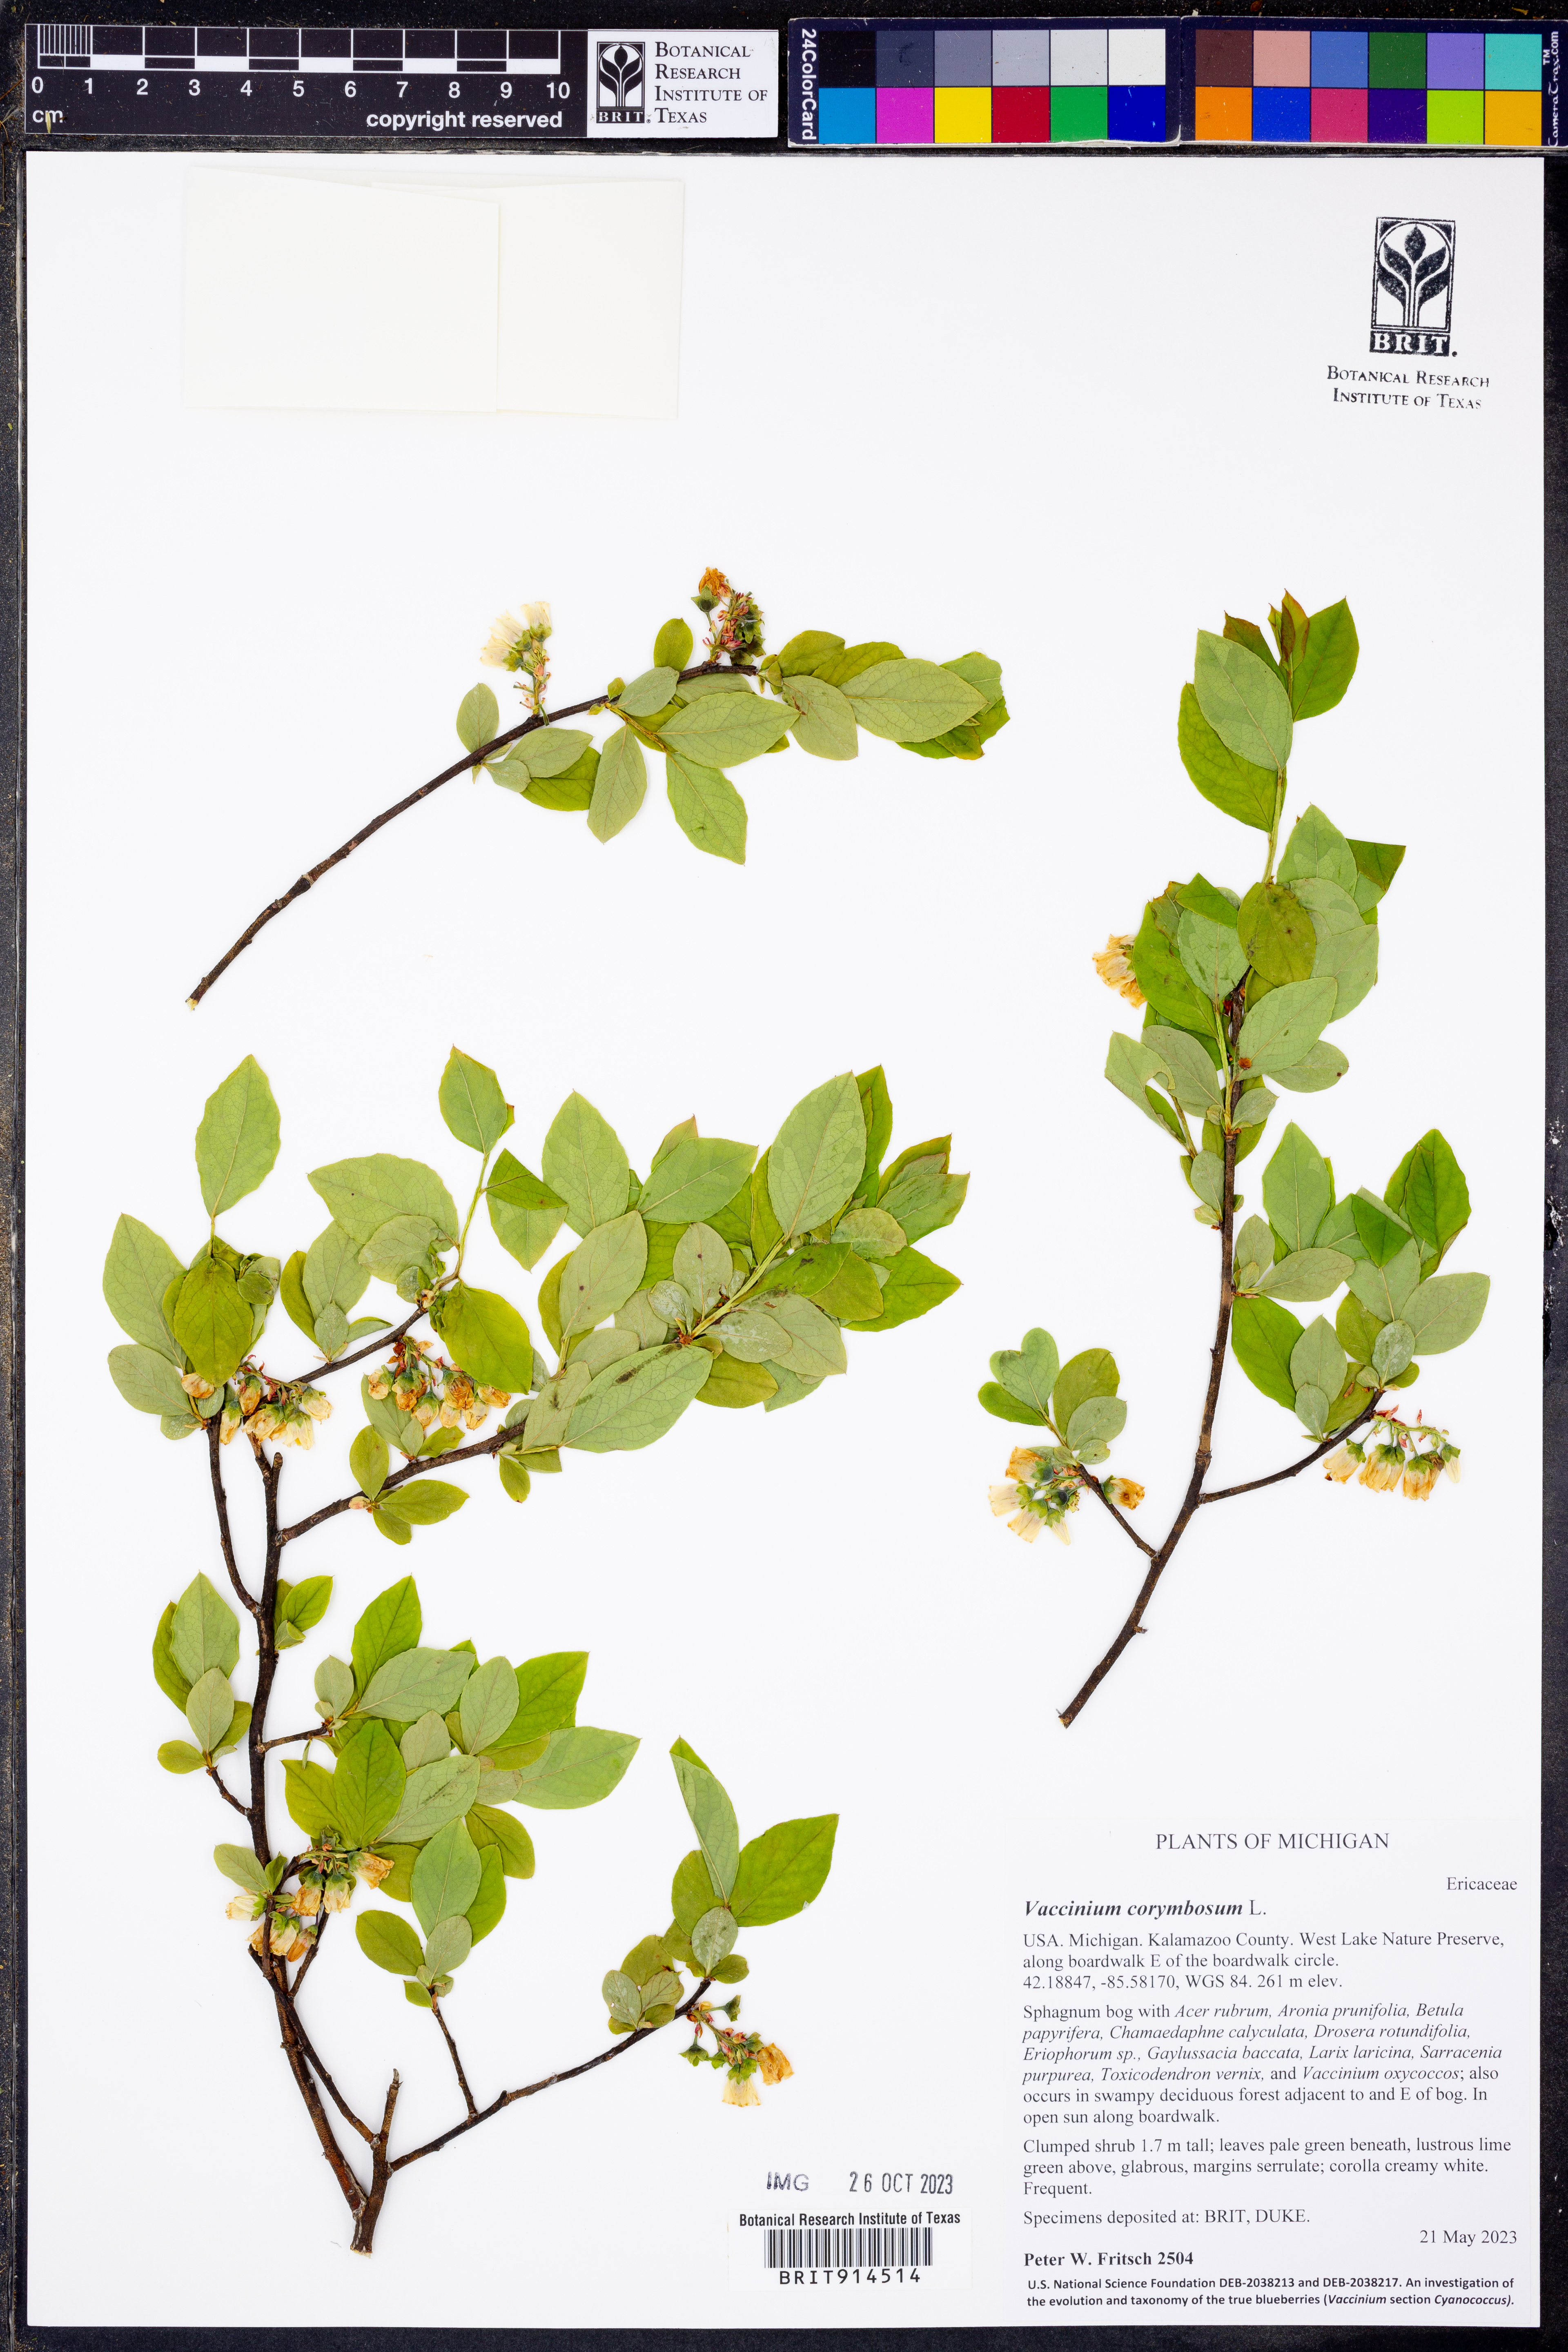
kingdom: Plantae
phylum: Tracheophyta
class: Magnoliopsida
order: Ericales
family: Ericaceae
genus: Vaccinium
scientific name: Vaccinium corymbosum
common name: Blueberry
